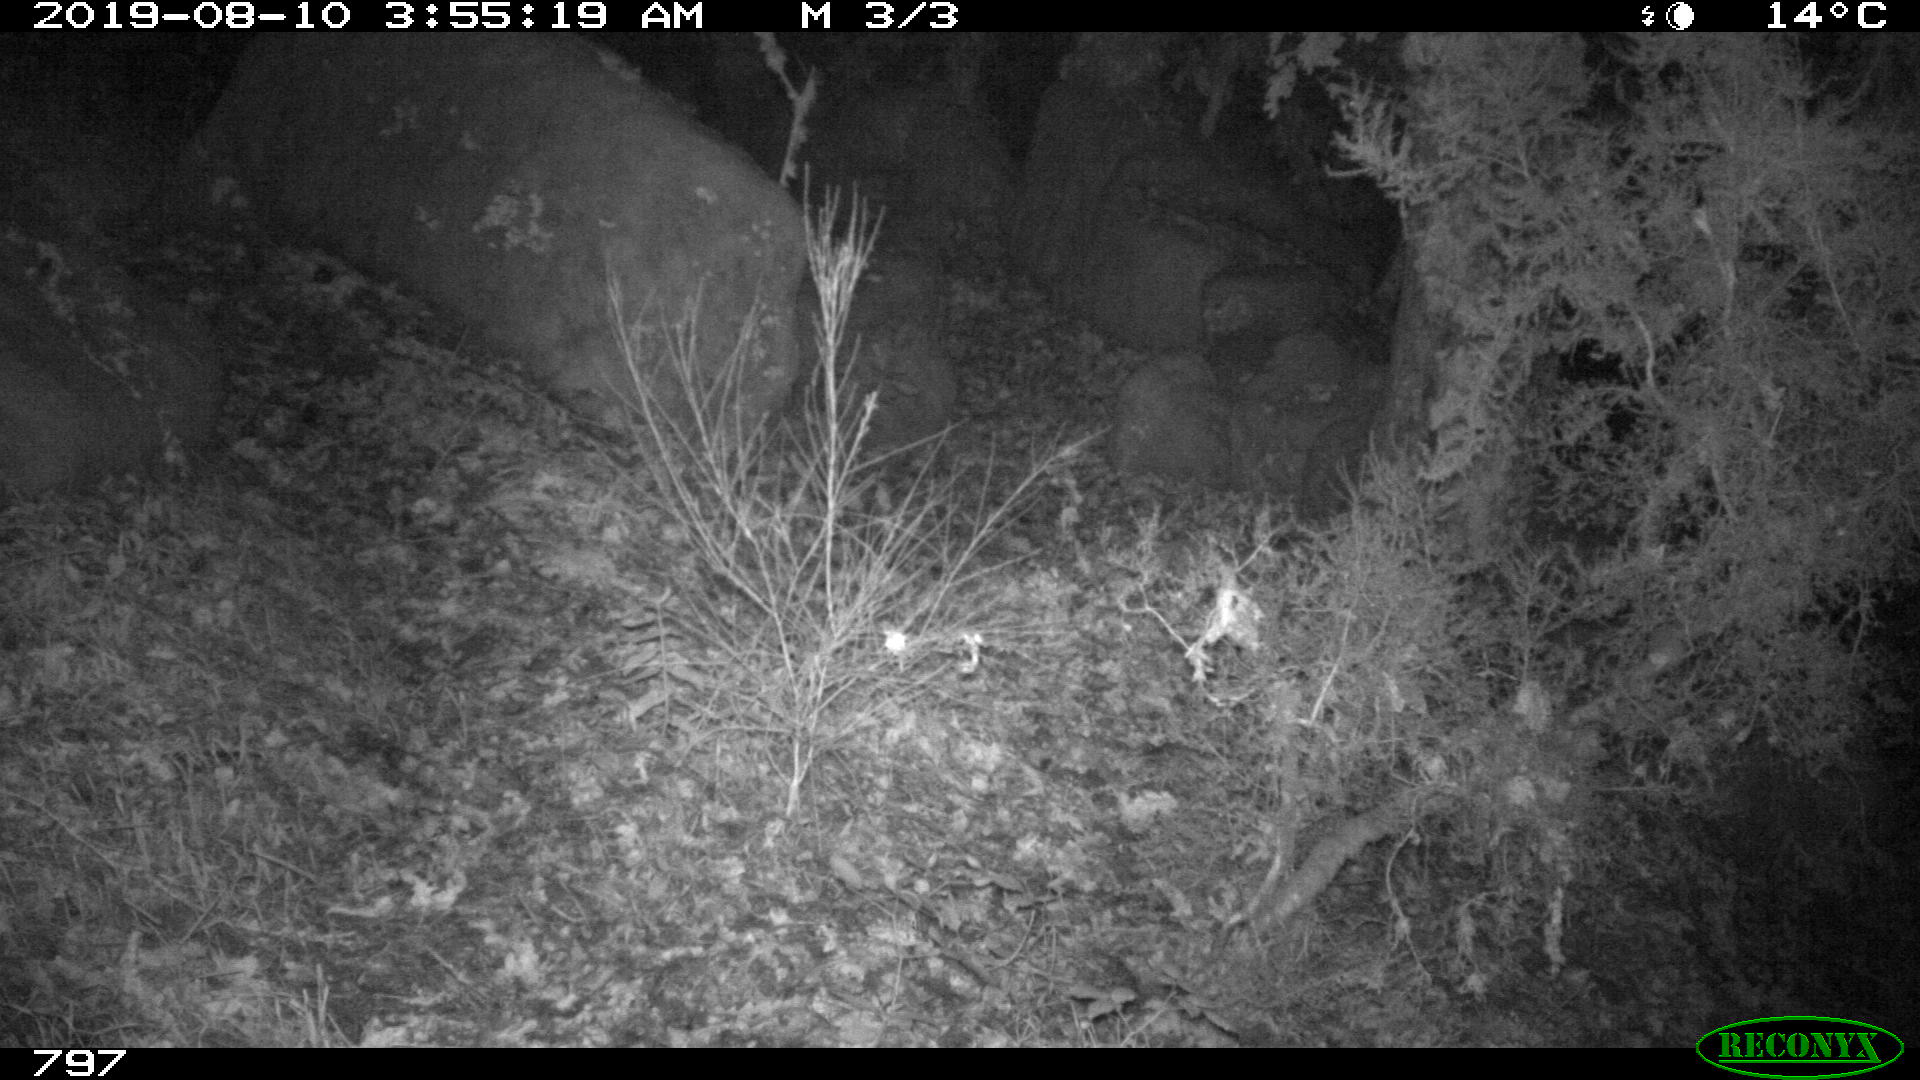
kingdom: Animalia
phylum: Chordata
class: Mammalia
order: Artiodactyla
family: Suidae
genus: Sus
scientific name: Sus scrofa
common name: Wild boar
